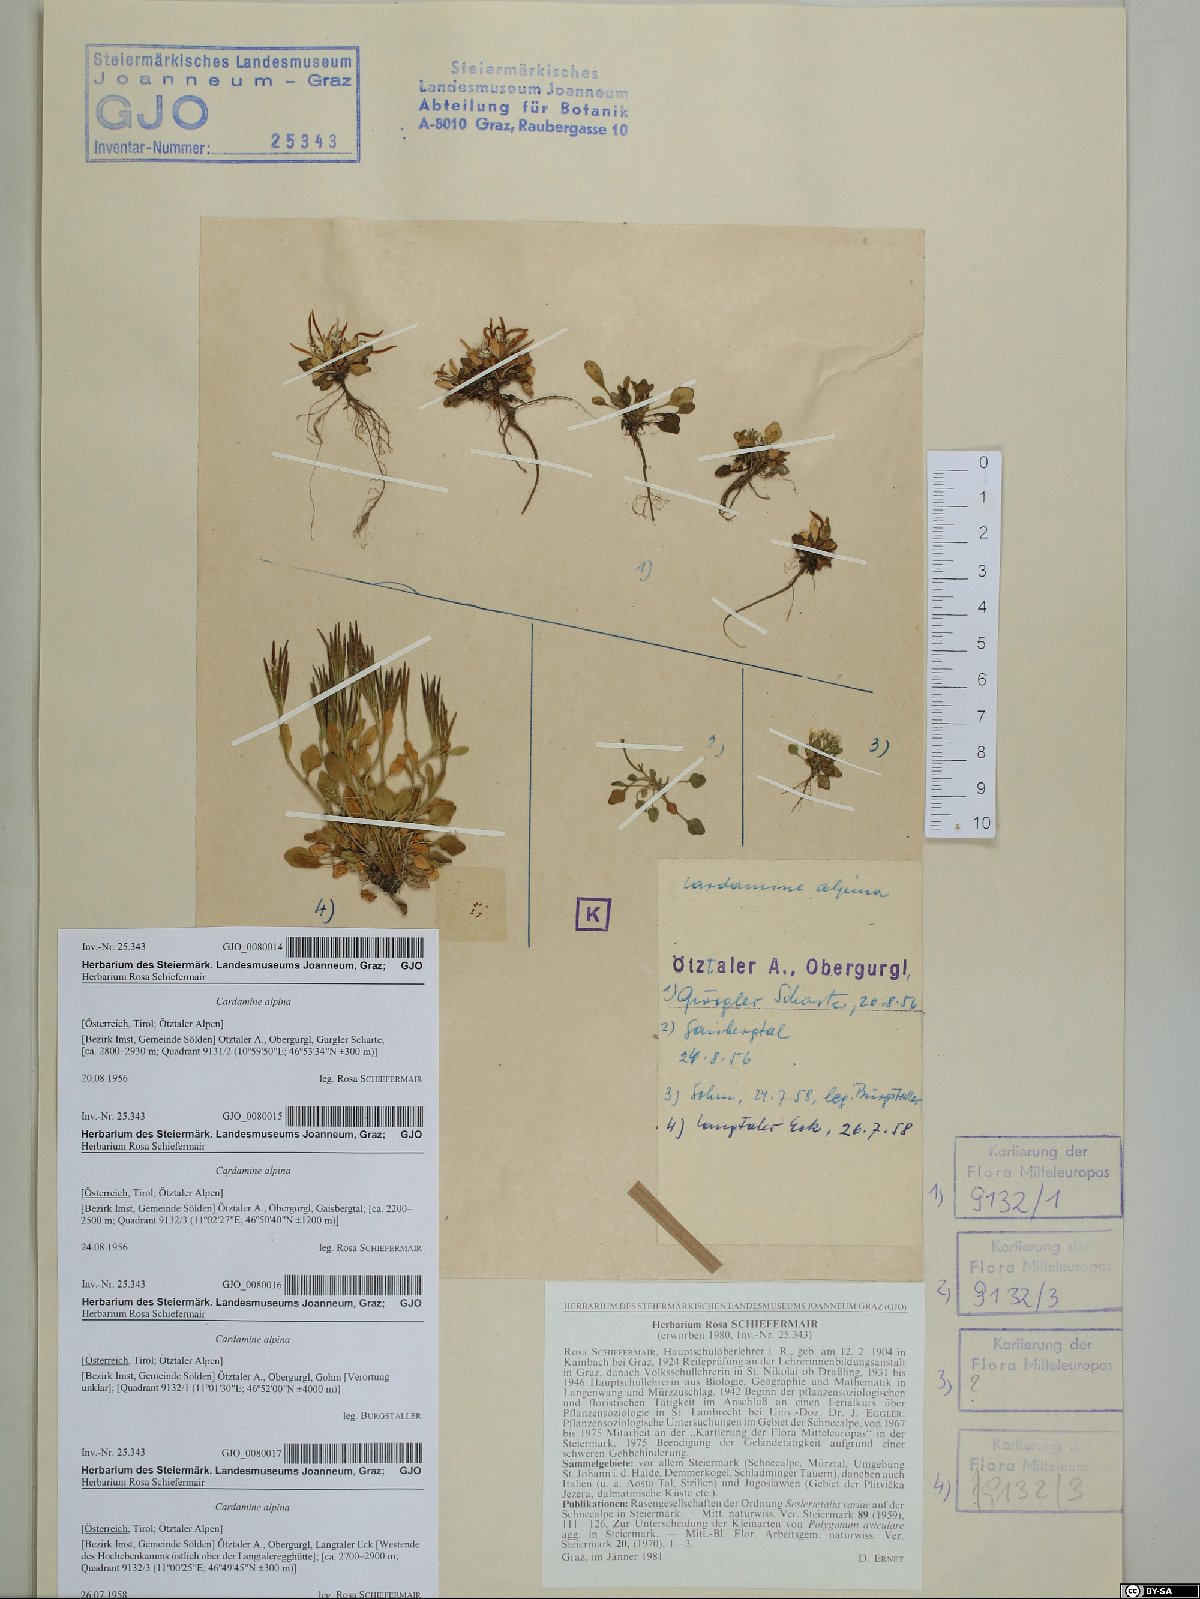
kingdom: Plantae
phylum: Tracheophyta
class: Magnoliopsida
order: Brassicales
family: Brassicaceae
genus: Cardamine
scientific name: Cardamine bellidifolia
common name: Alpine bittercress
